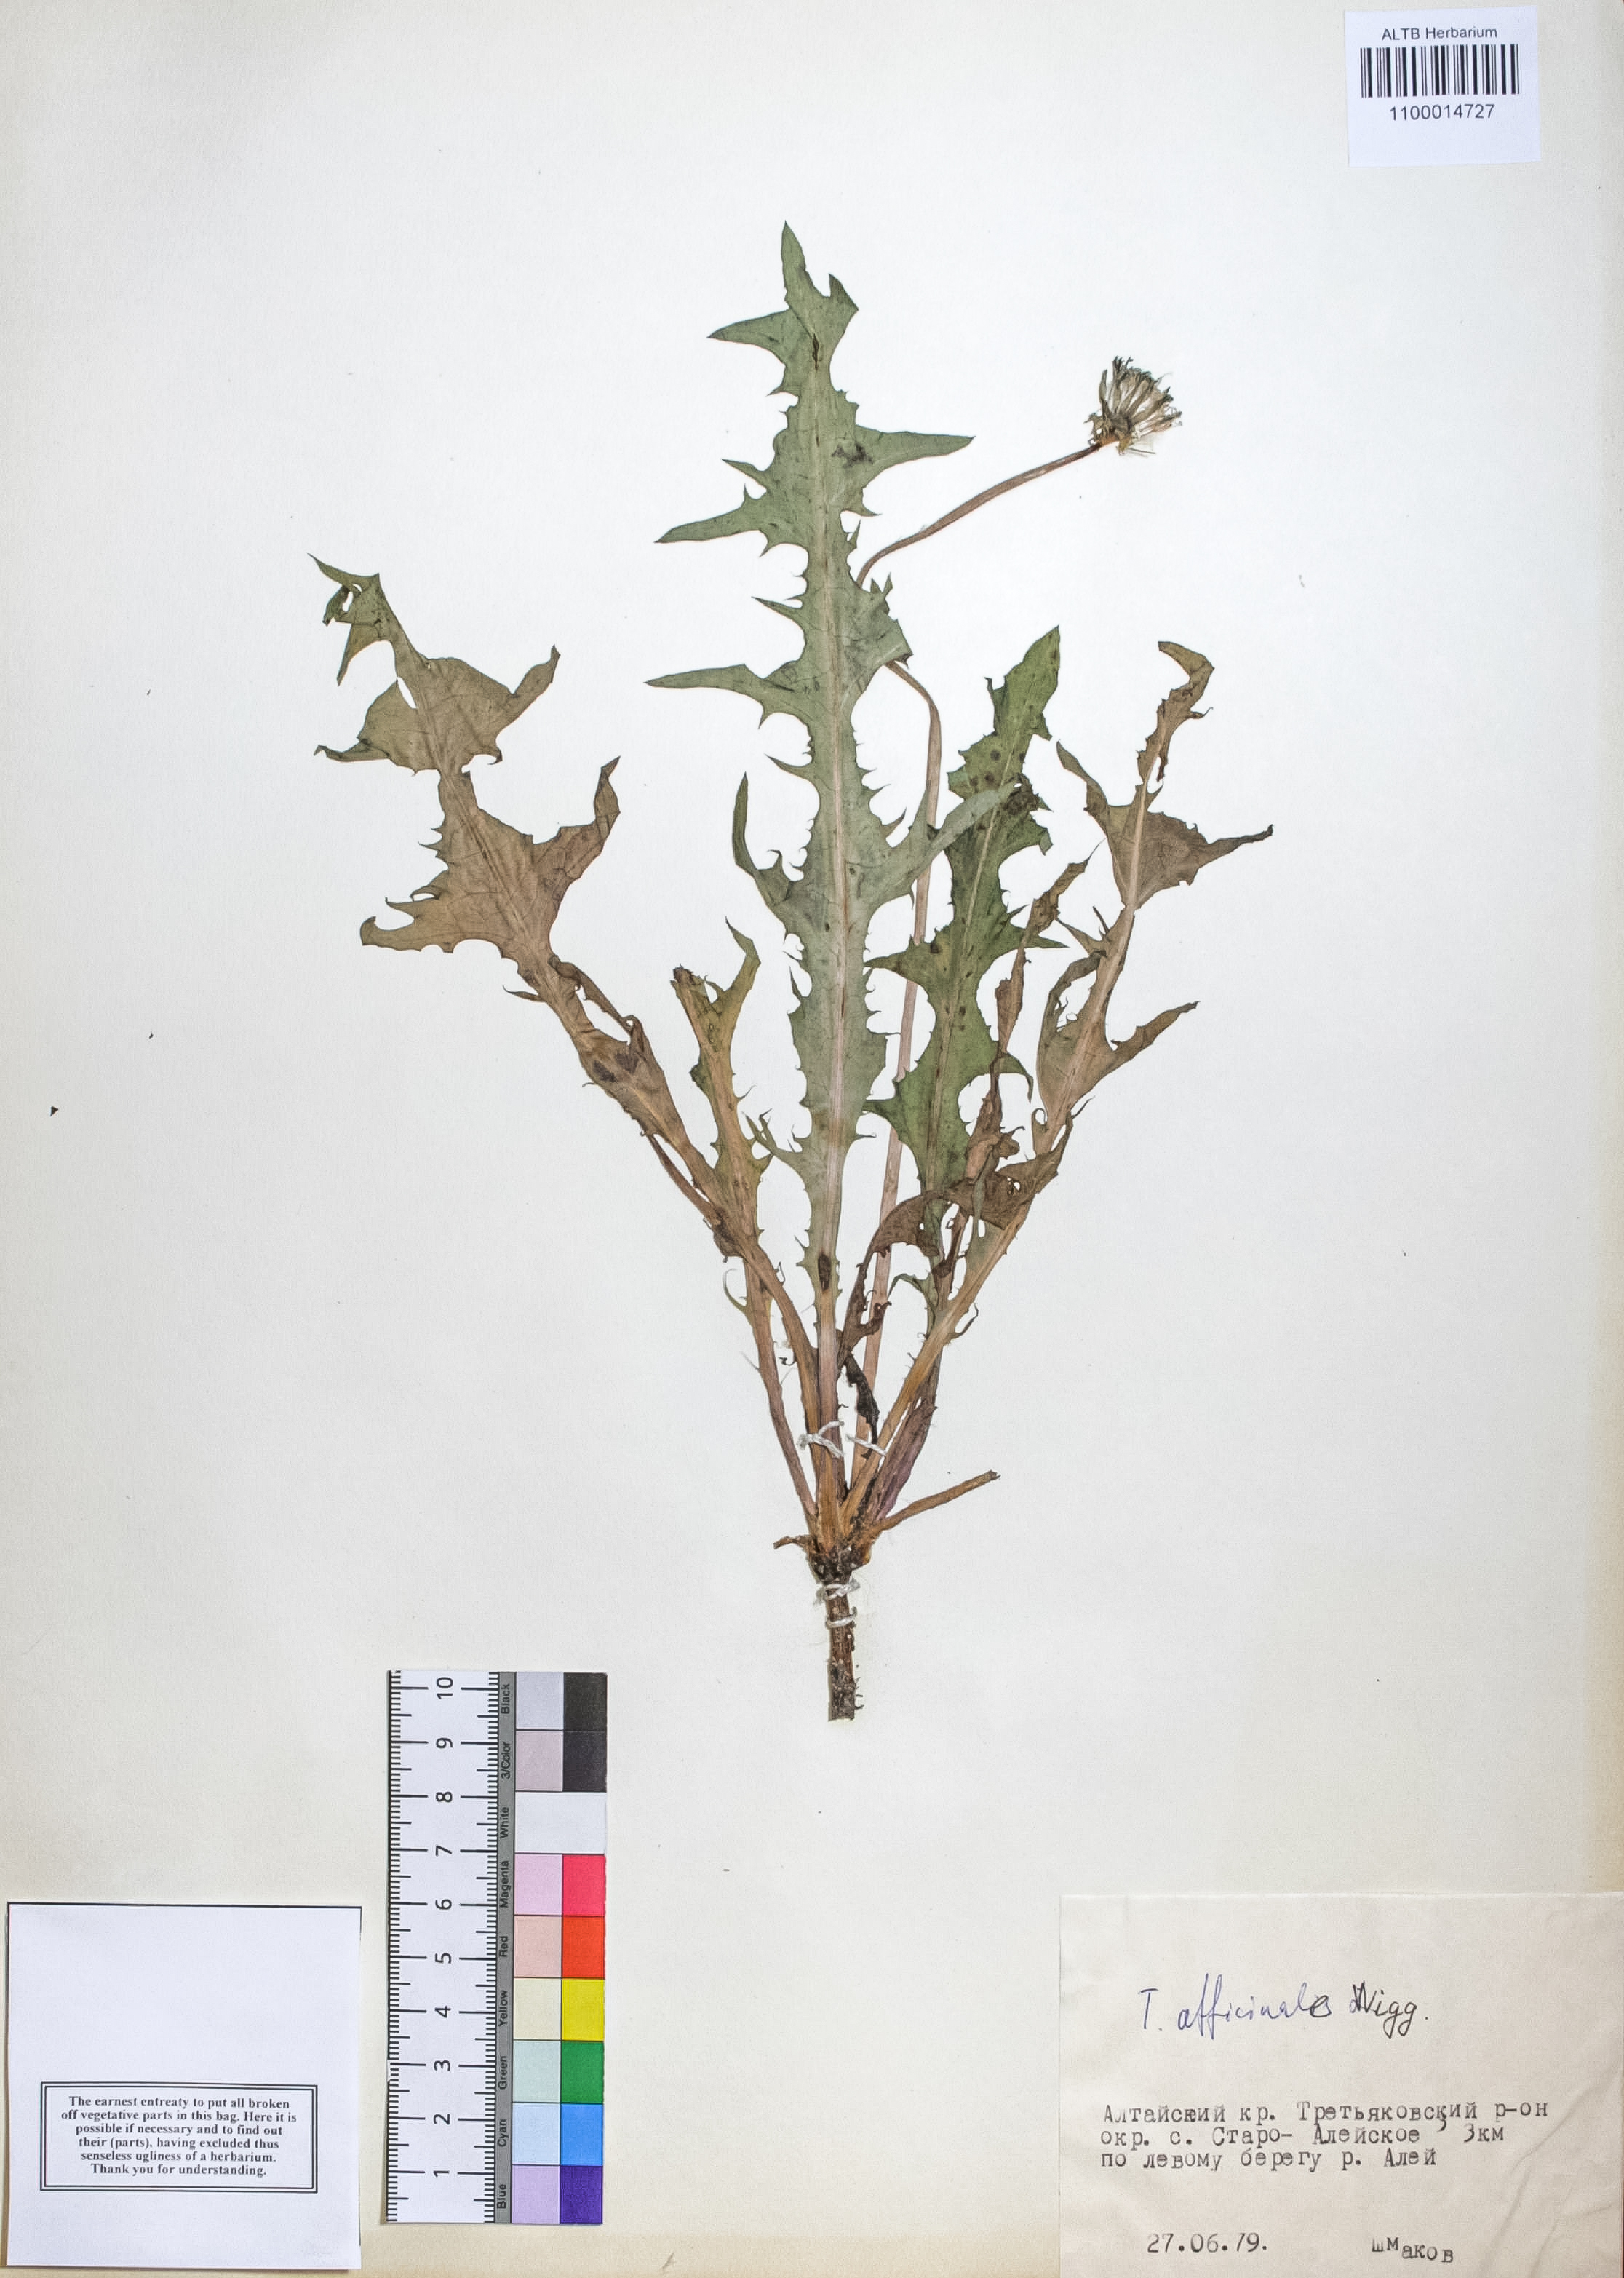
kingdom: Plantae
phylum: Tracheophyta
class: Magnoliopsida
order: Asterales
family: Asteraceae
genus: Taraxacum
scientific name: Taraxacum officinale
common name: Common dandelion
